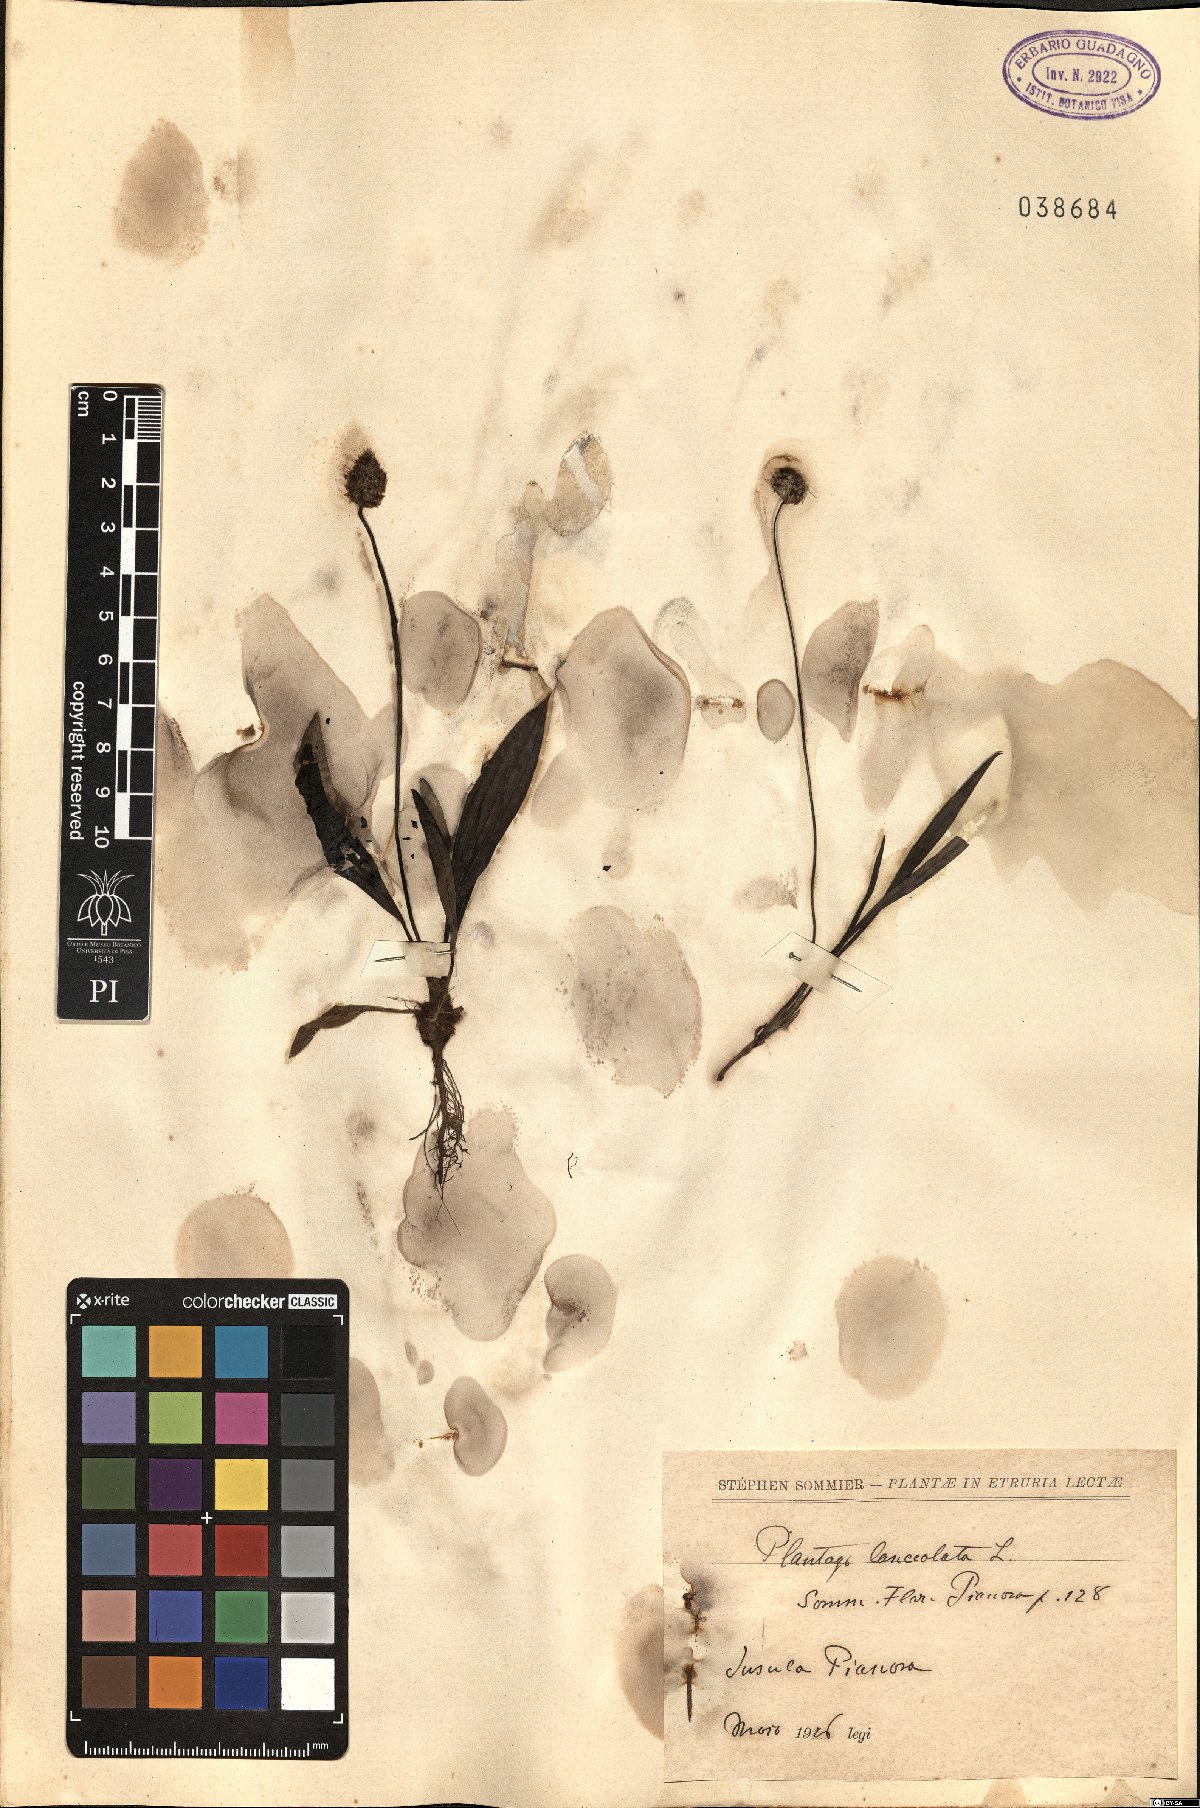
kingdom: Plantae
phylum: Tracheophyta
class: Magnoliopsida
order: Lamiales
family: Plantaginaceae
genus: Plantago
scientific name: Plantago lanceolata
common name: Ribwort plantain
